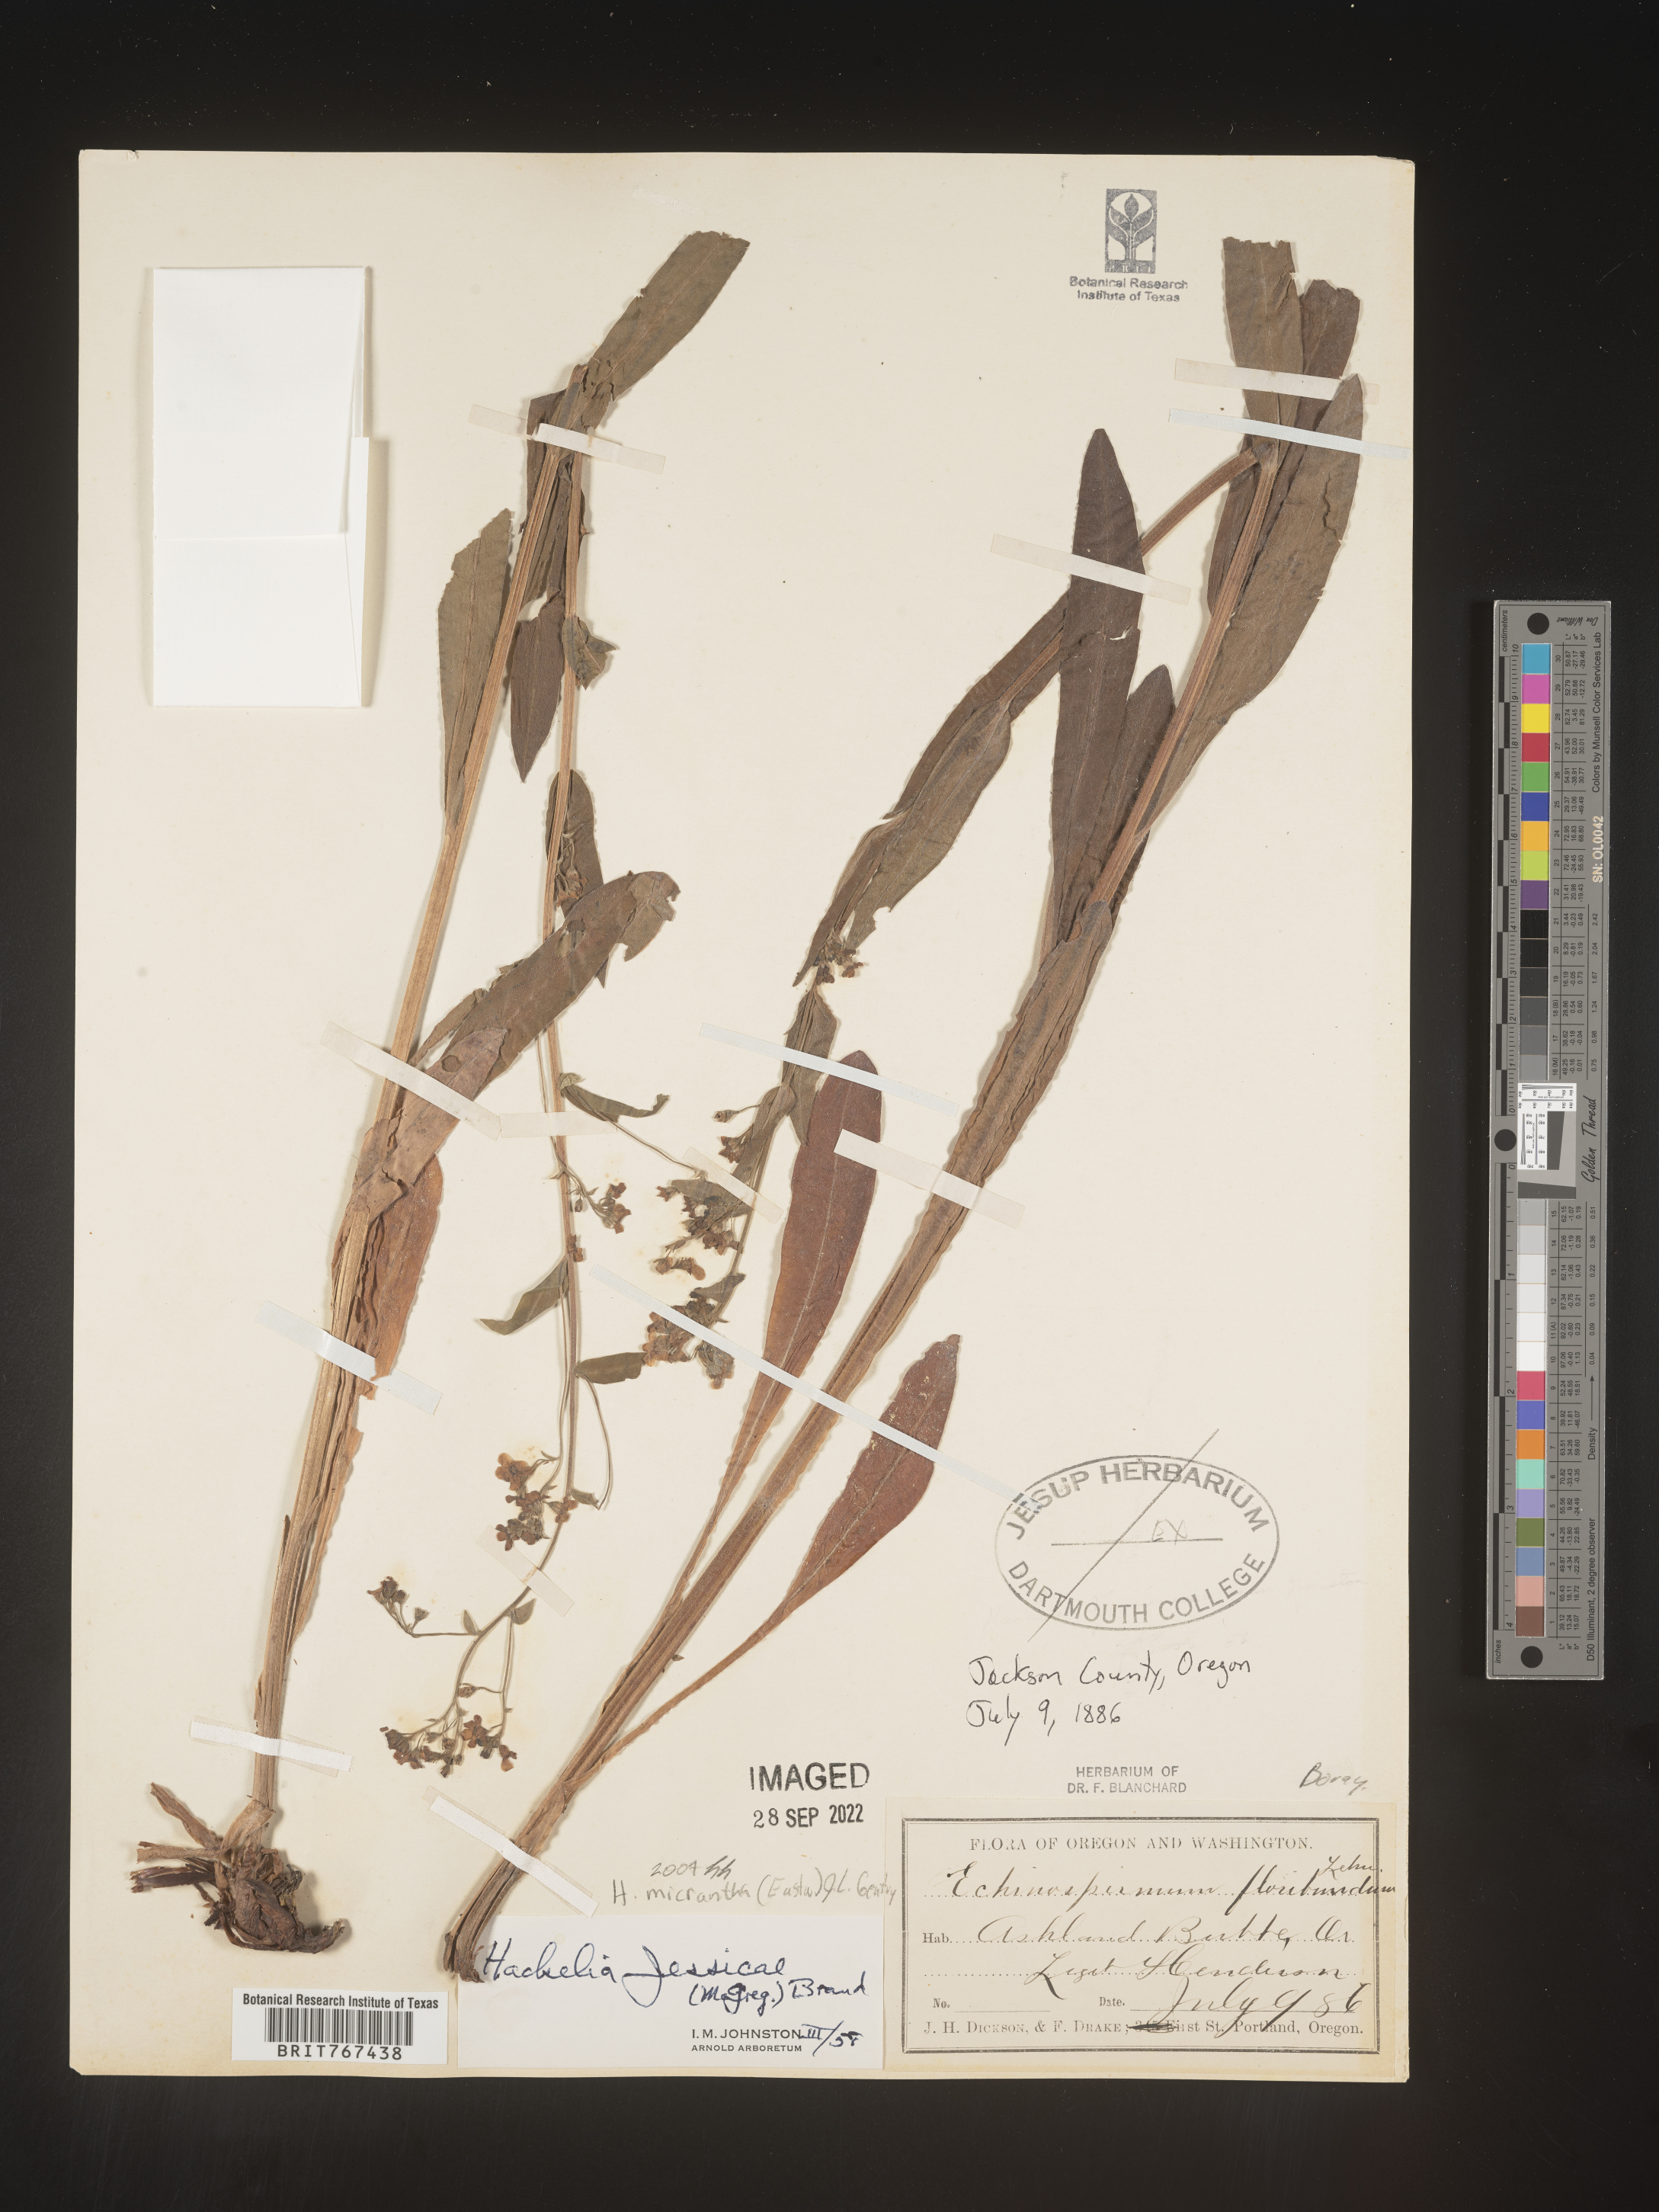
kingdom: Plantae
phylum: Tracheophyta
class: Magnoliopsida
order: Boraginales
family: Boraginaceae
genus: Hackelia
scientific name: Hackelia
